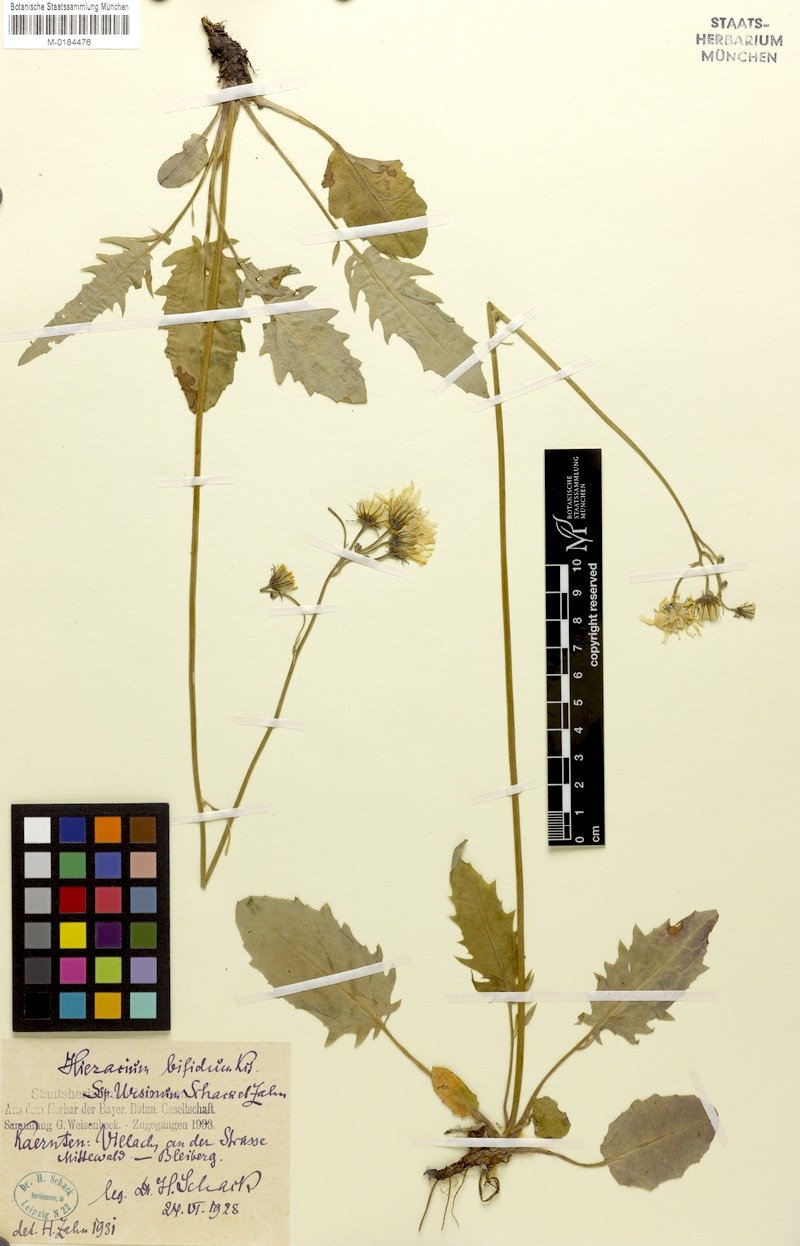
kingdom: Plantae
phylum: Tracheophyta
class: Magnoliopsida
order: Asterales
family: Asteraceae
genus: Hieracium
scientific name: Hieracium bifidum
